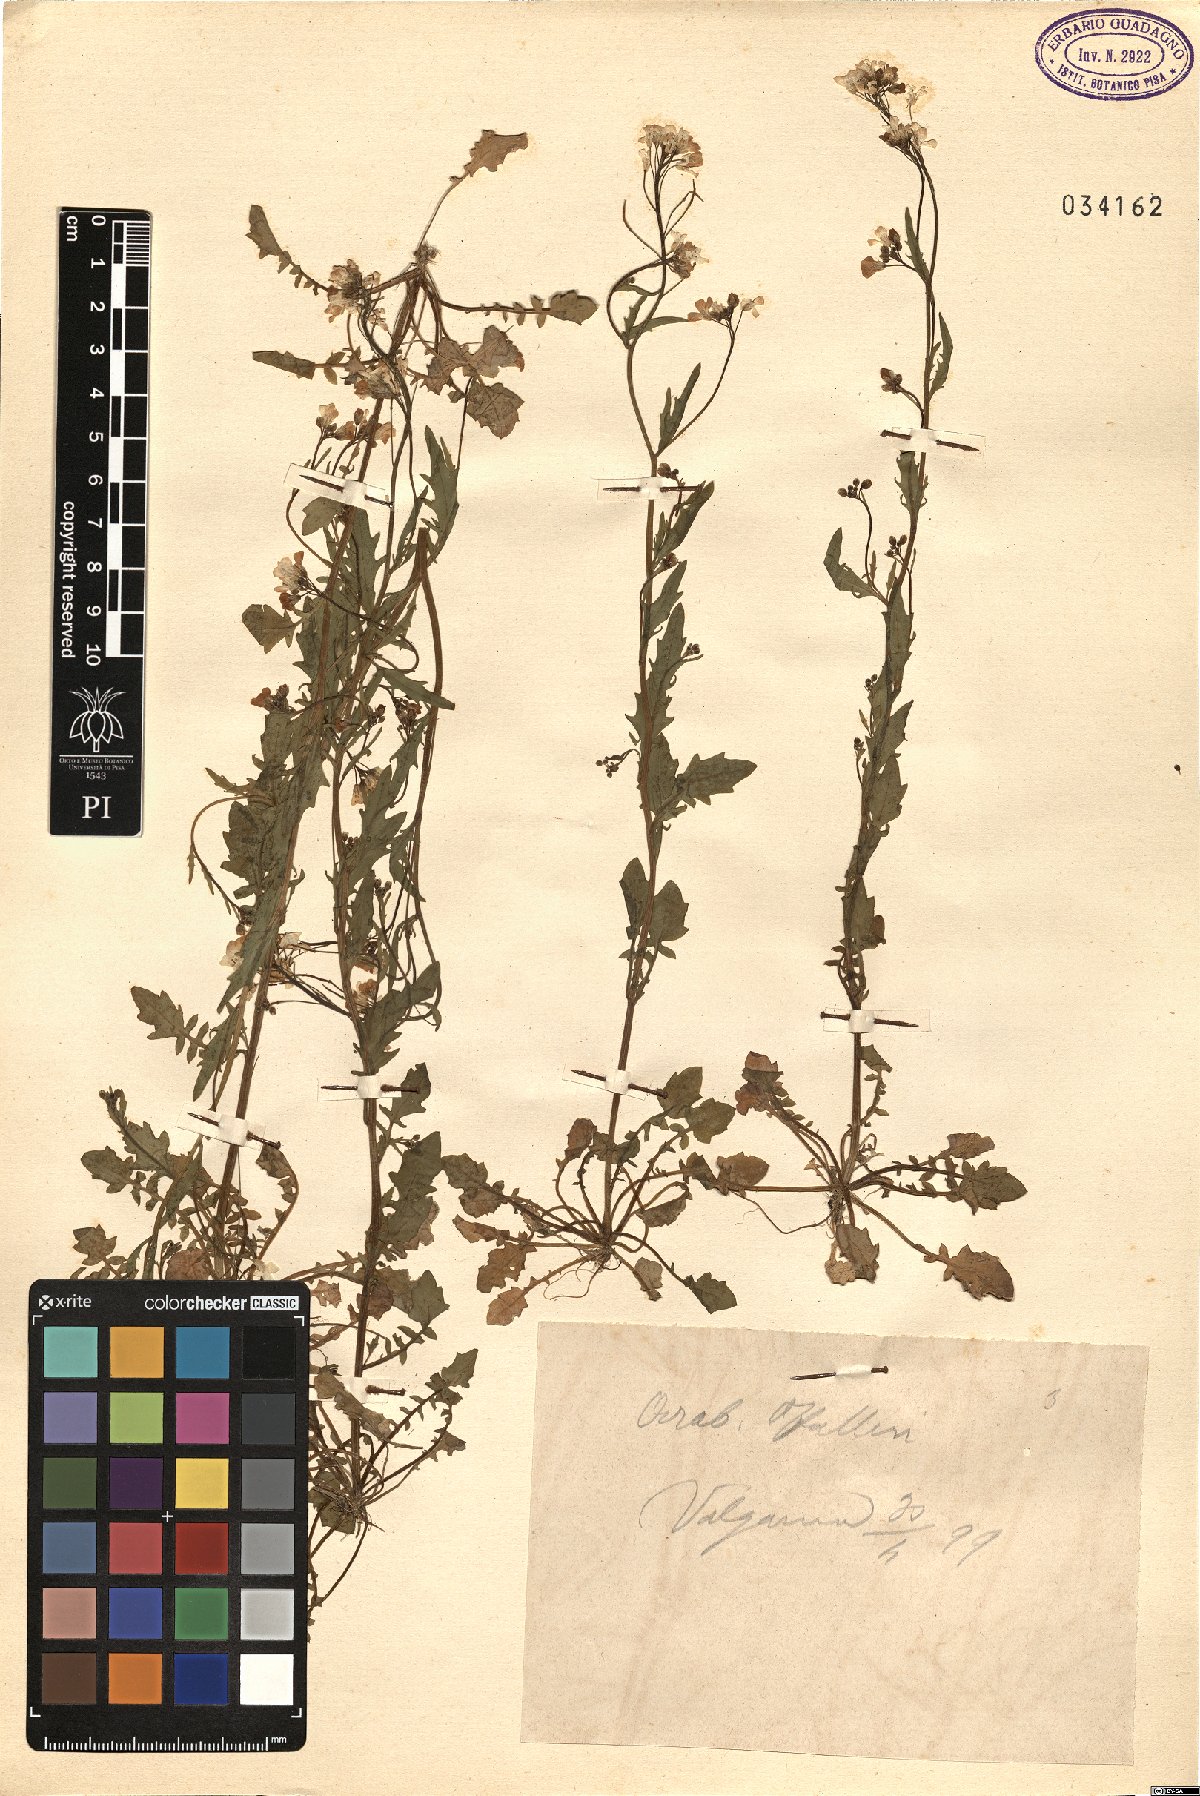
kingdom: Plantae
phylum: Tracheophyta
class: Magnoliopsida
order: Brassicales
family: Brassicaceae
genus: Arabidopsis
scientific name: Arabidopsis halleri
